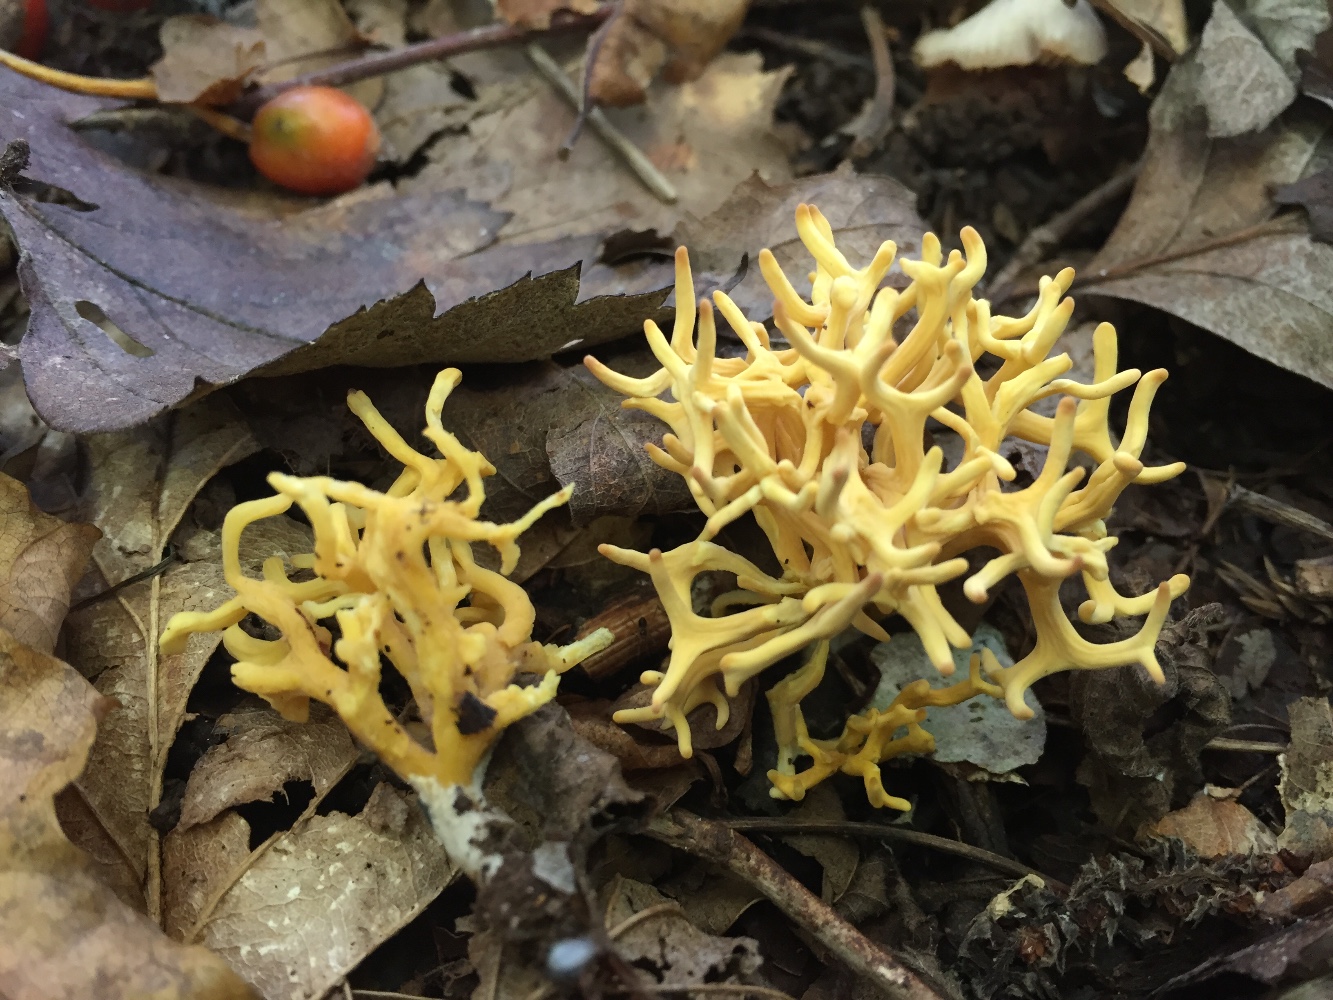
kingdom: Fungi
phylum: Basidiomycota
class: Agaricomycetes
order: Agaricales
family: Clavariaceae
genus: Clavulinopsis
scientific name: Clavulinopsis corniculata
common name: eng-køllesvamp
